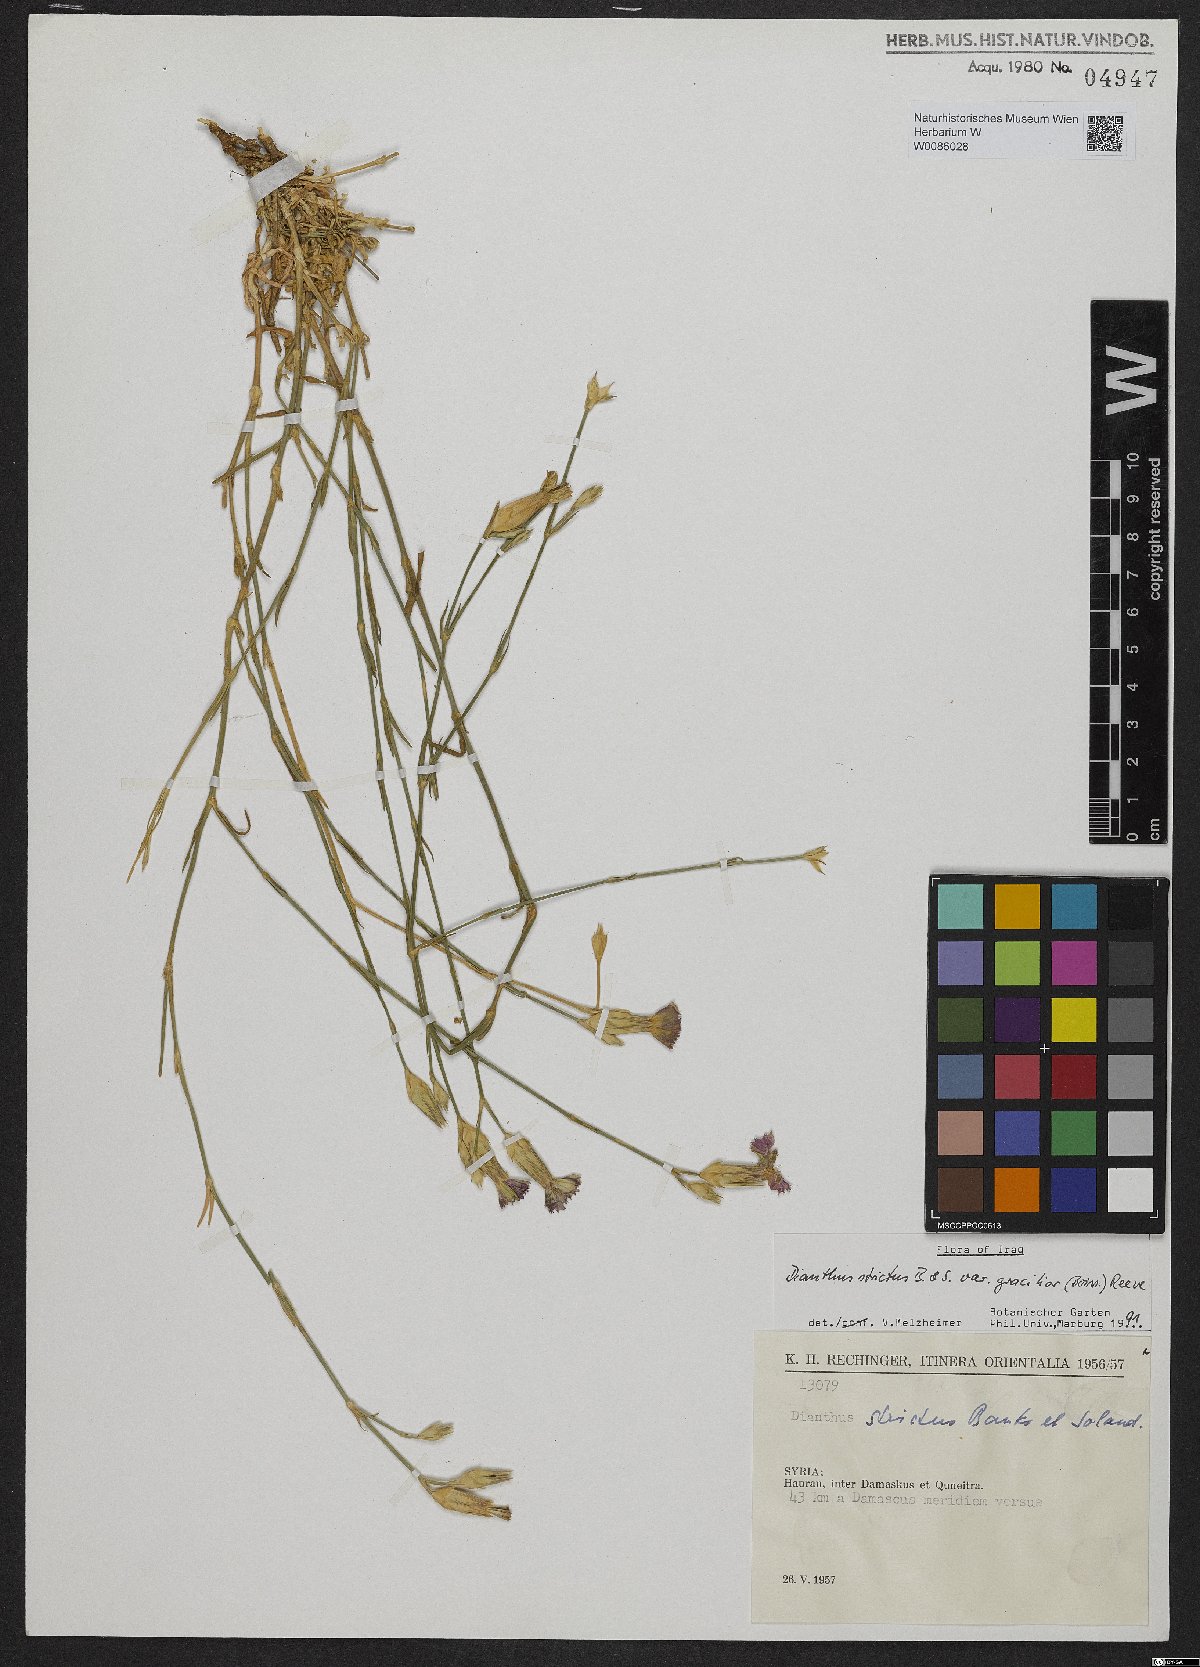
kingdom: Plantae
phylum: Tracheophyta
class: Magnoliopsida
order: Caryophyllales
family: Caryophyllaceae
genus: Dianthus
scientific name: Dianthus strictus
